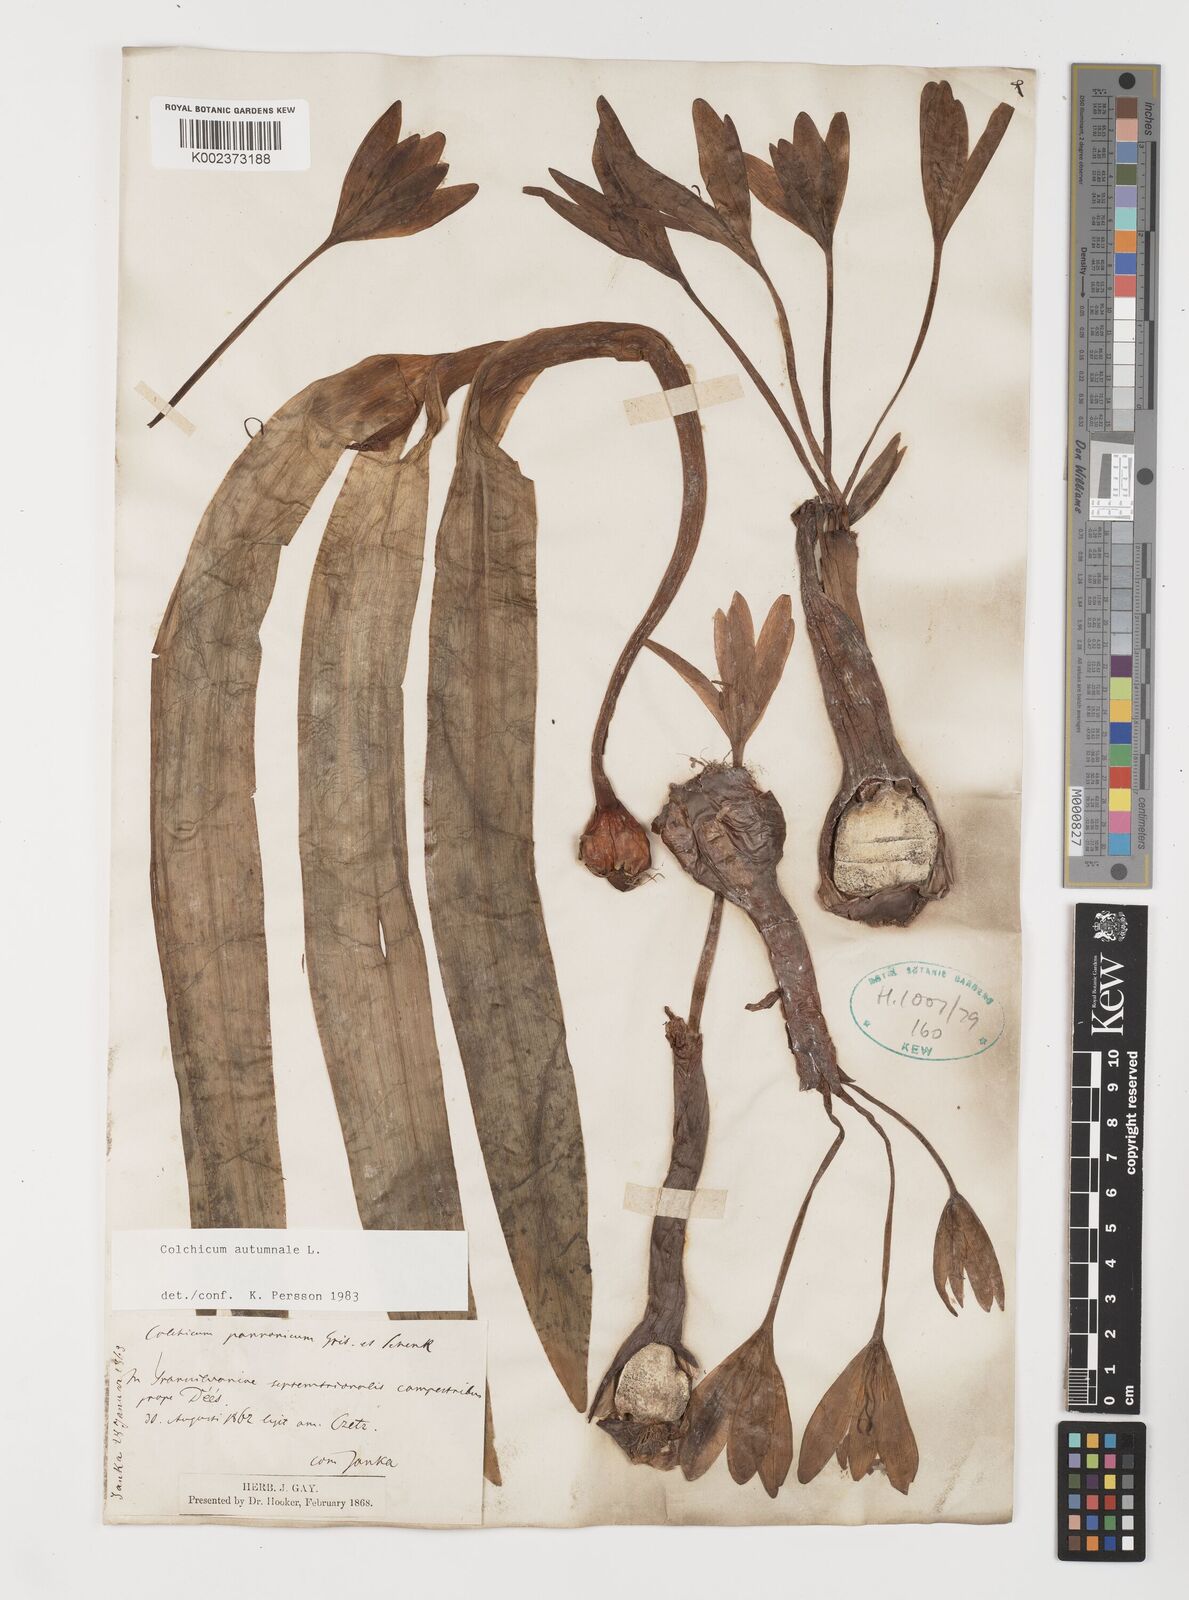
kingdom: Plantae
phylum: Tracheophyta
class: Liliopsida
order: Liliales
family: Colchicaceae
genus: Colchicum
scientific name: Colchicum autumnale
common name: Autumn crocus
